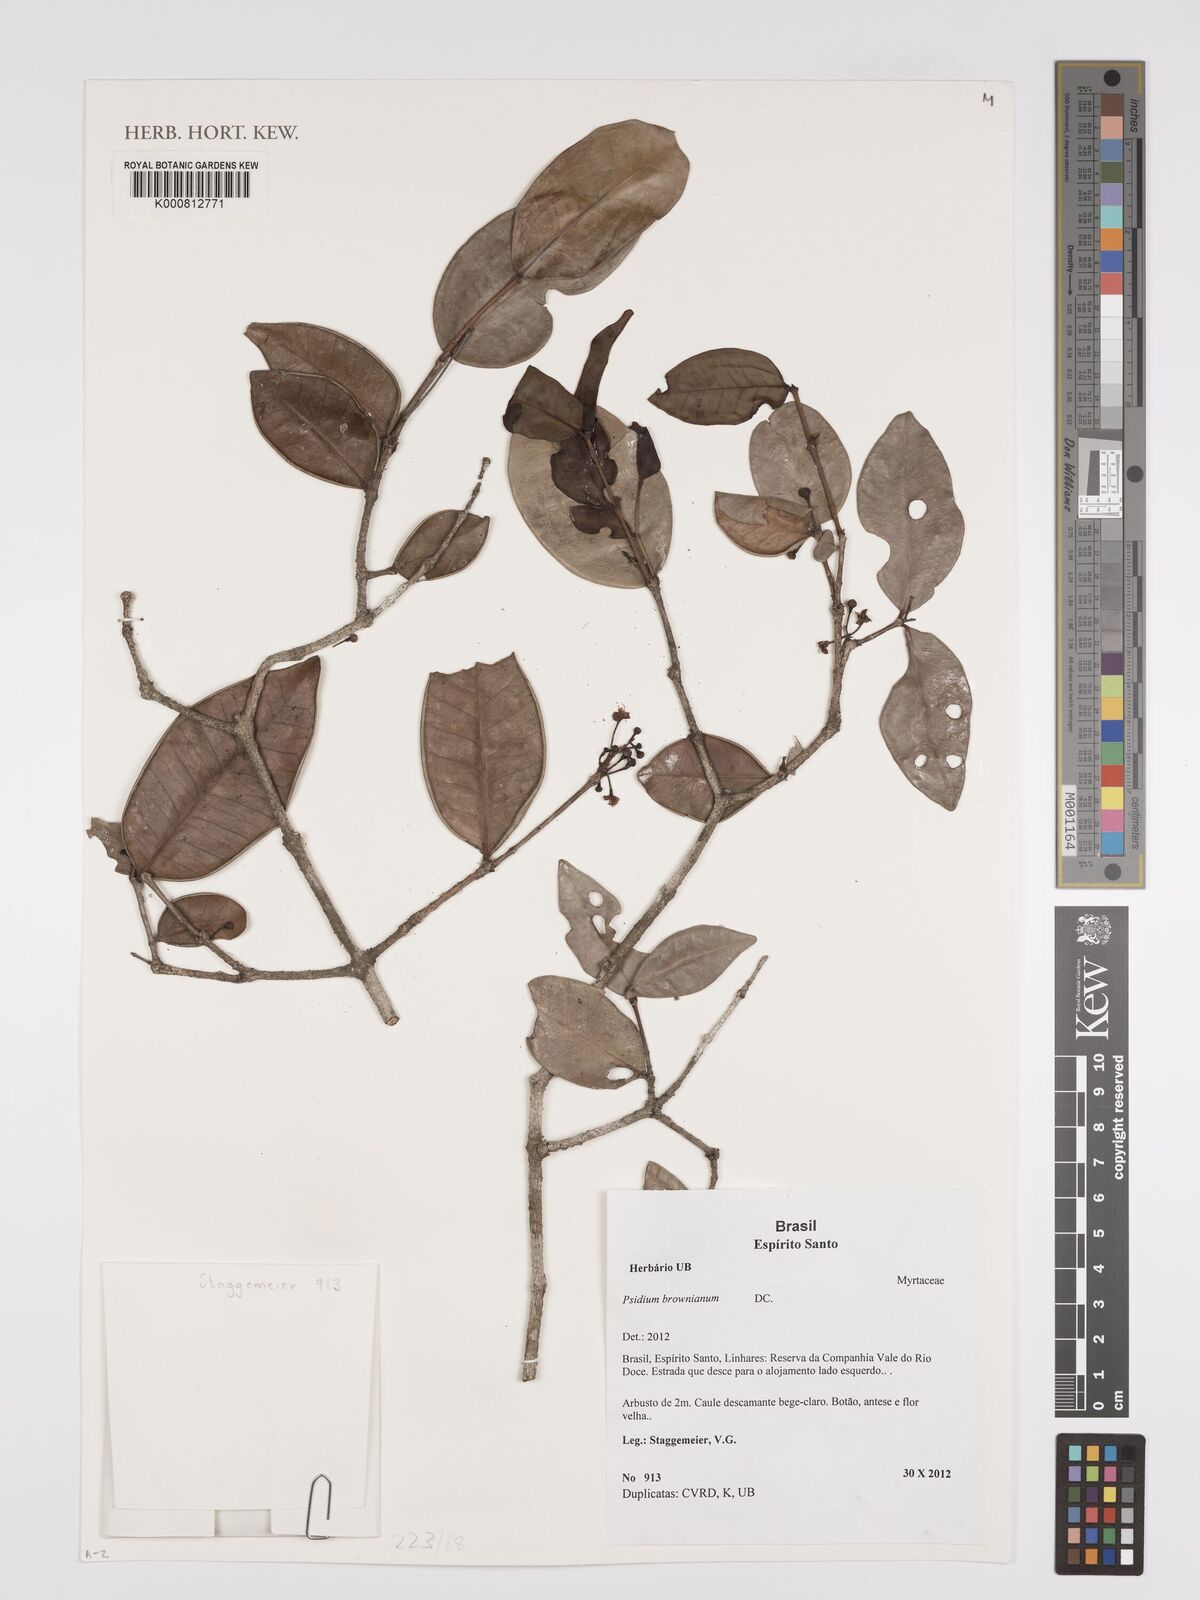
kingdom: Plantae
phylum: Tracheophyta
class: Magnoliopsida
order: Myrtales
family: Myrtaceae
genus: Psidium
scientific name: Psidium brownianum
